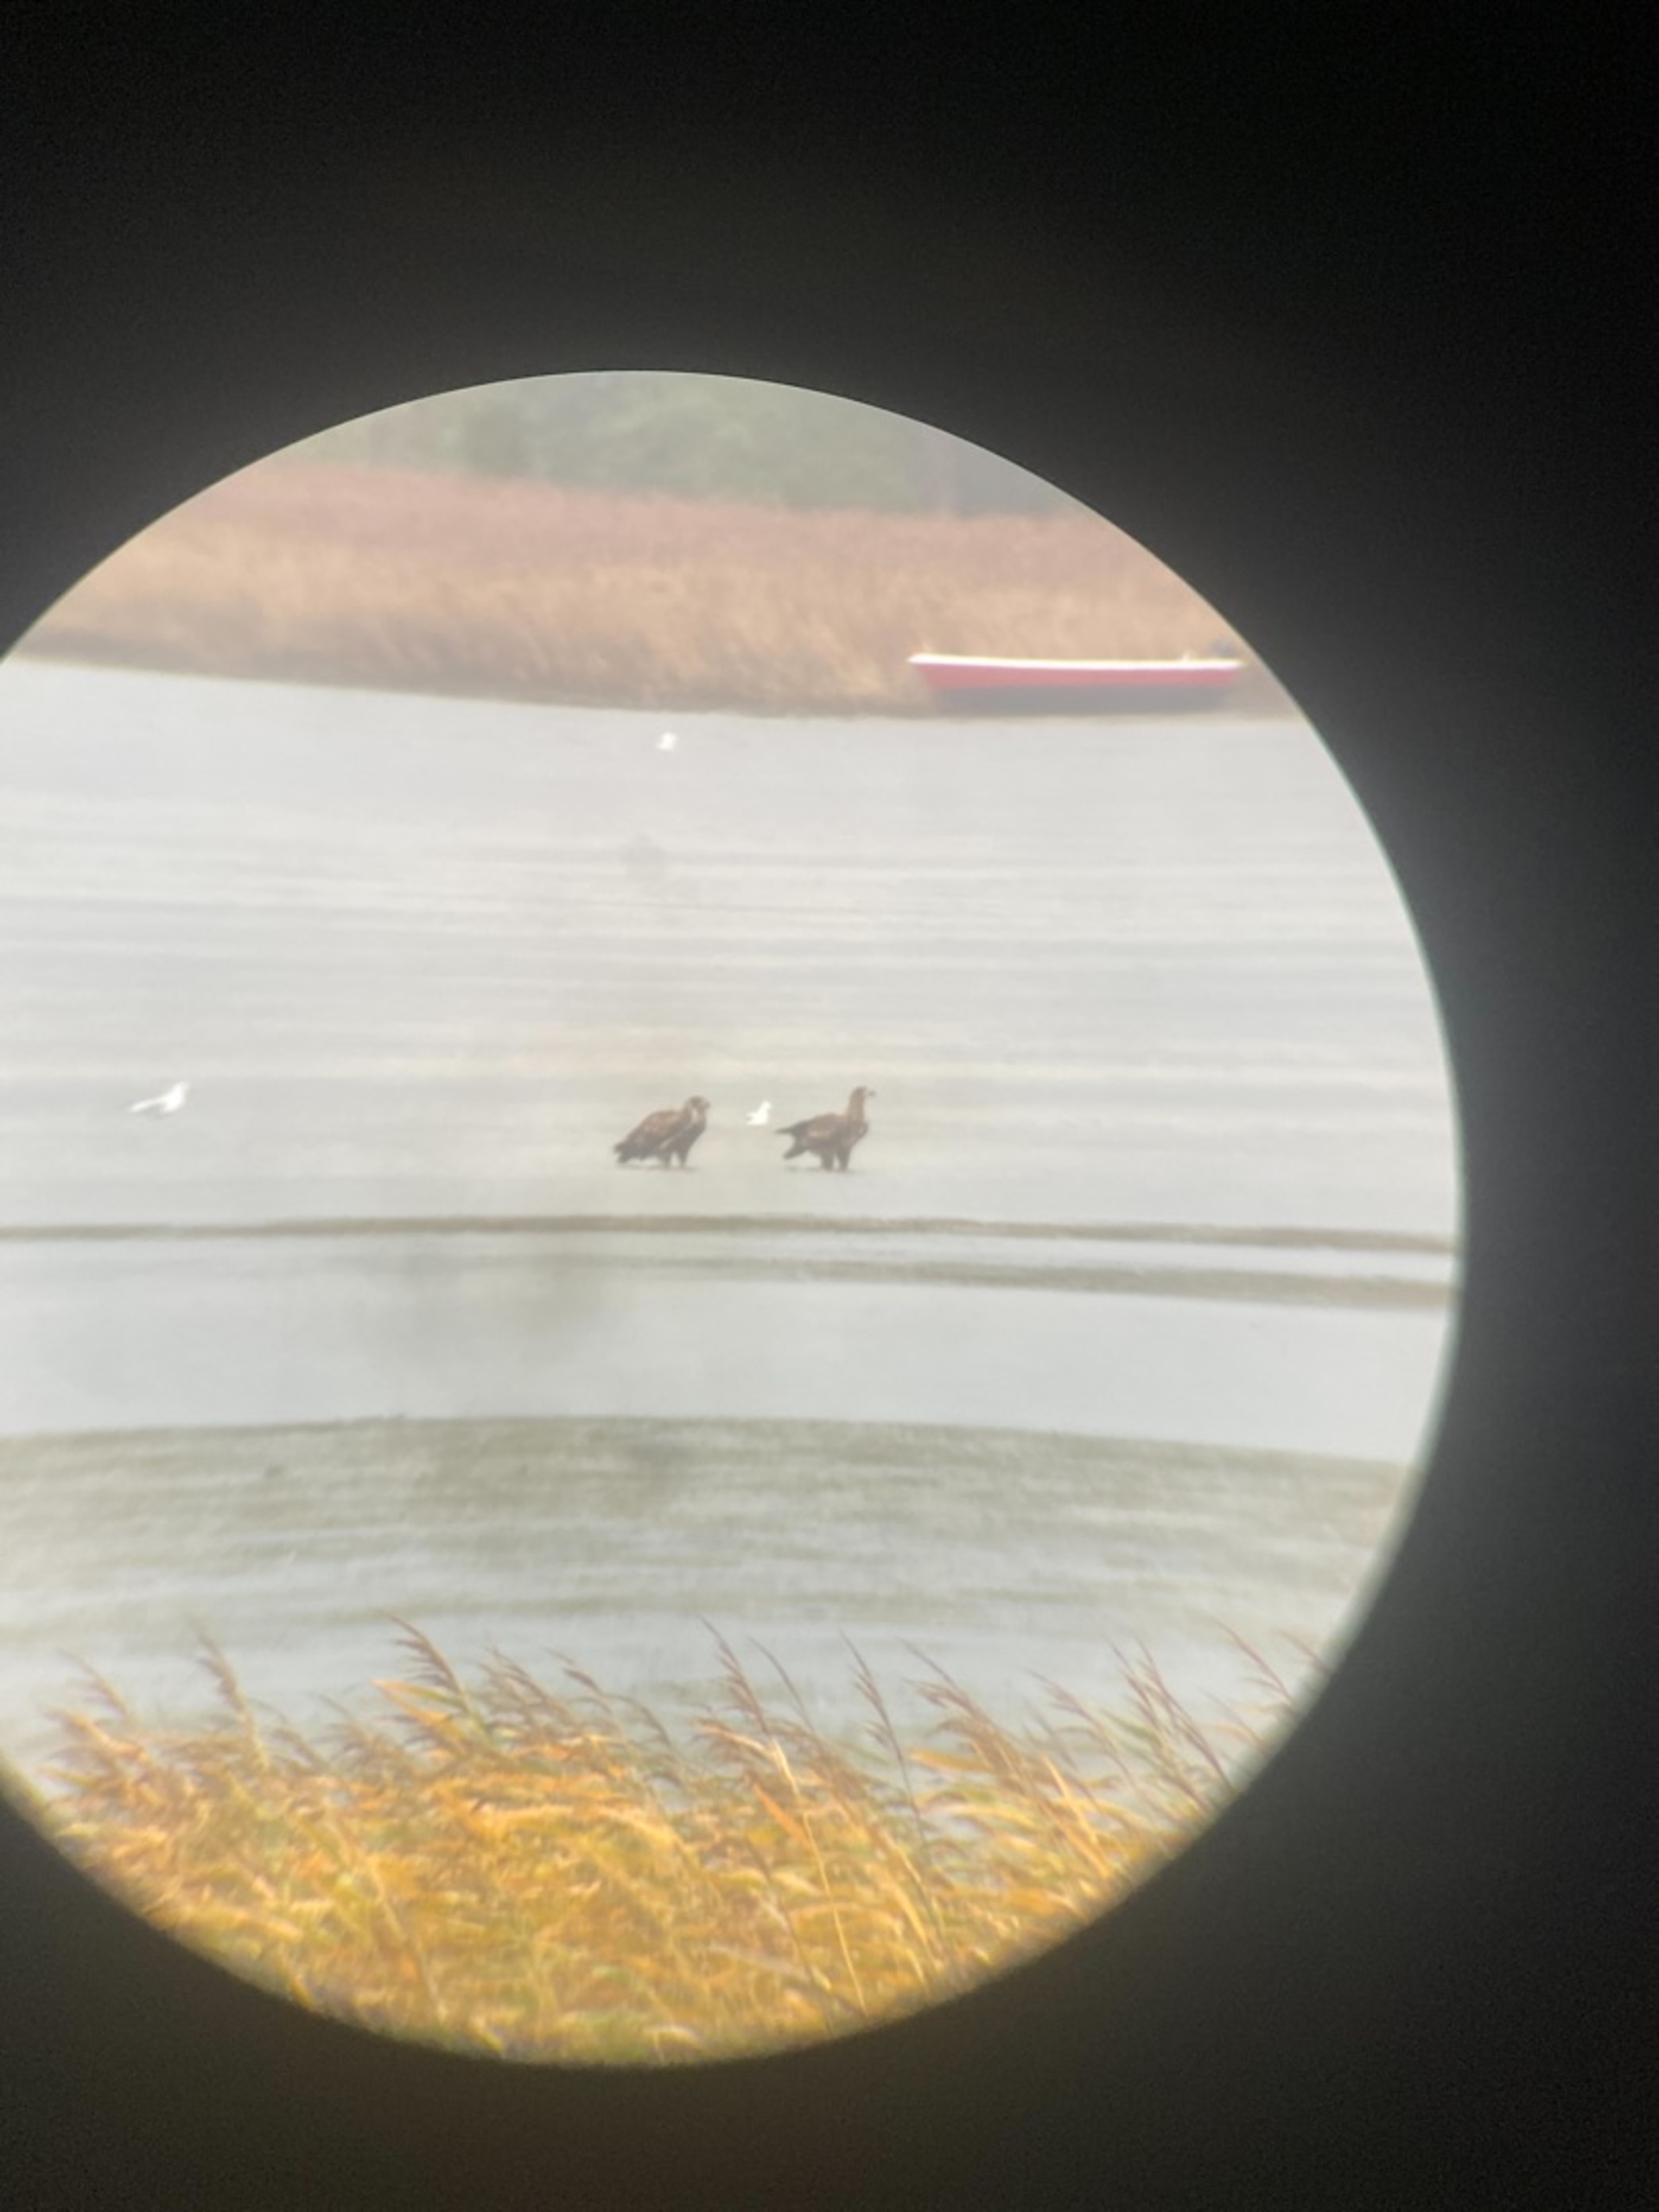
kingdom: Animalia
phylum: Chordata
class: Aves
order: Accipitriformes
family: Accipitridae
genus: Haliaeetus
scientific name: Haliaeetus albicilla
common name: Havørn
